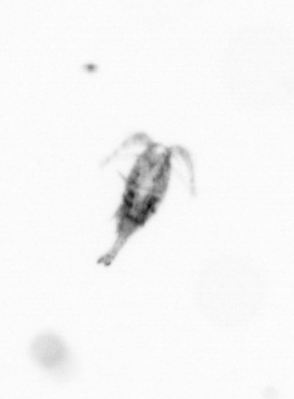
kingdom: Animalia
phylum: Arthropoda
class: Copepoda
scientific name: Copepoda
